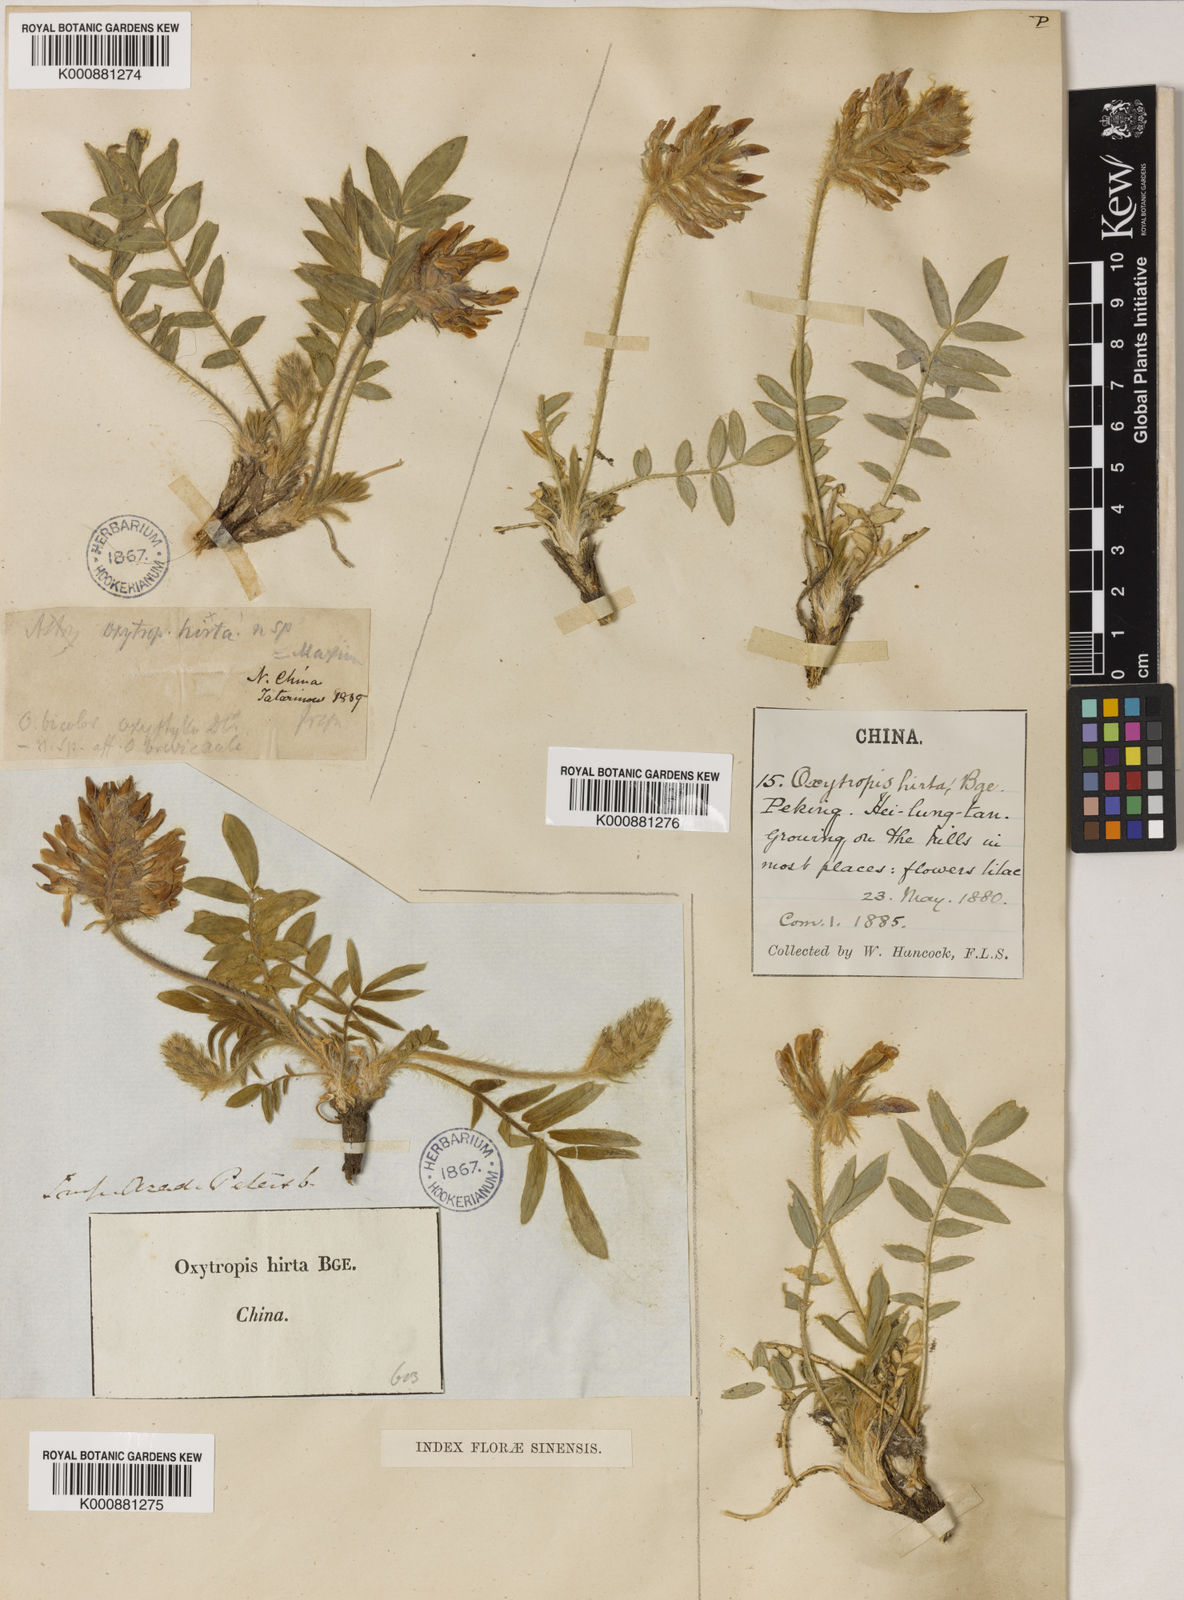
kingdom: Plantae
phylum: Tracheophyta
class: Magnoliopsida
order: Fabales
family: Fabaceae
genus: Oxytropis
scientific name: Oxytropis hirta
